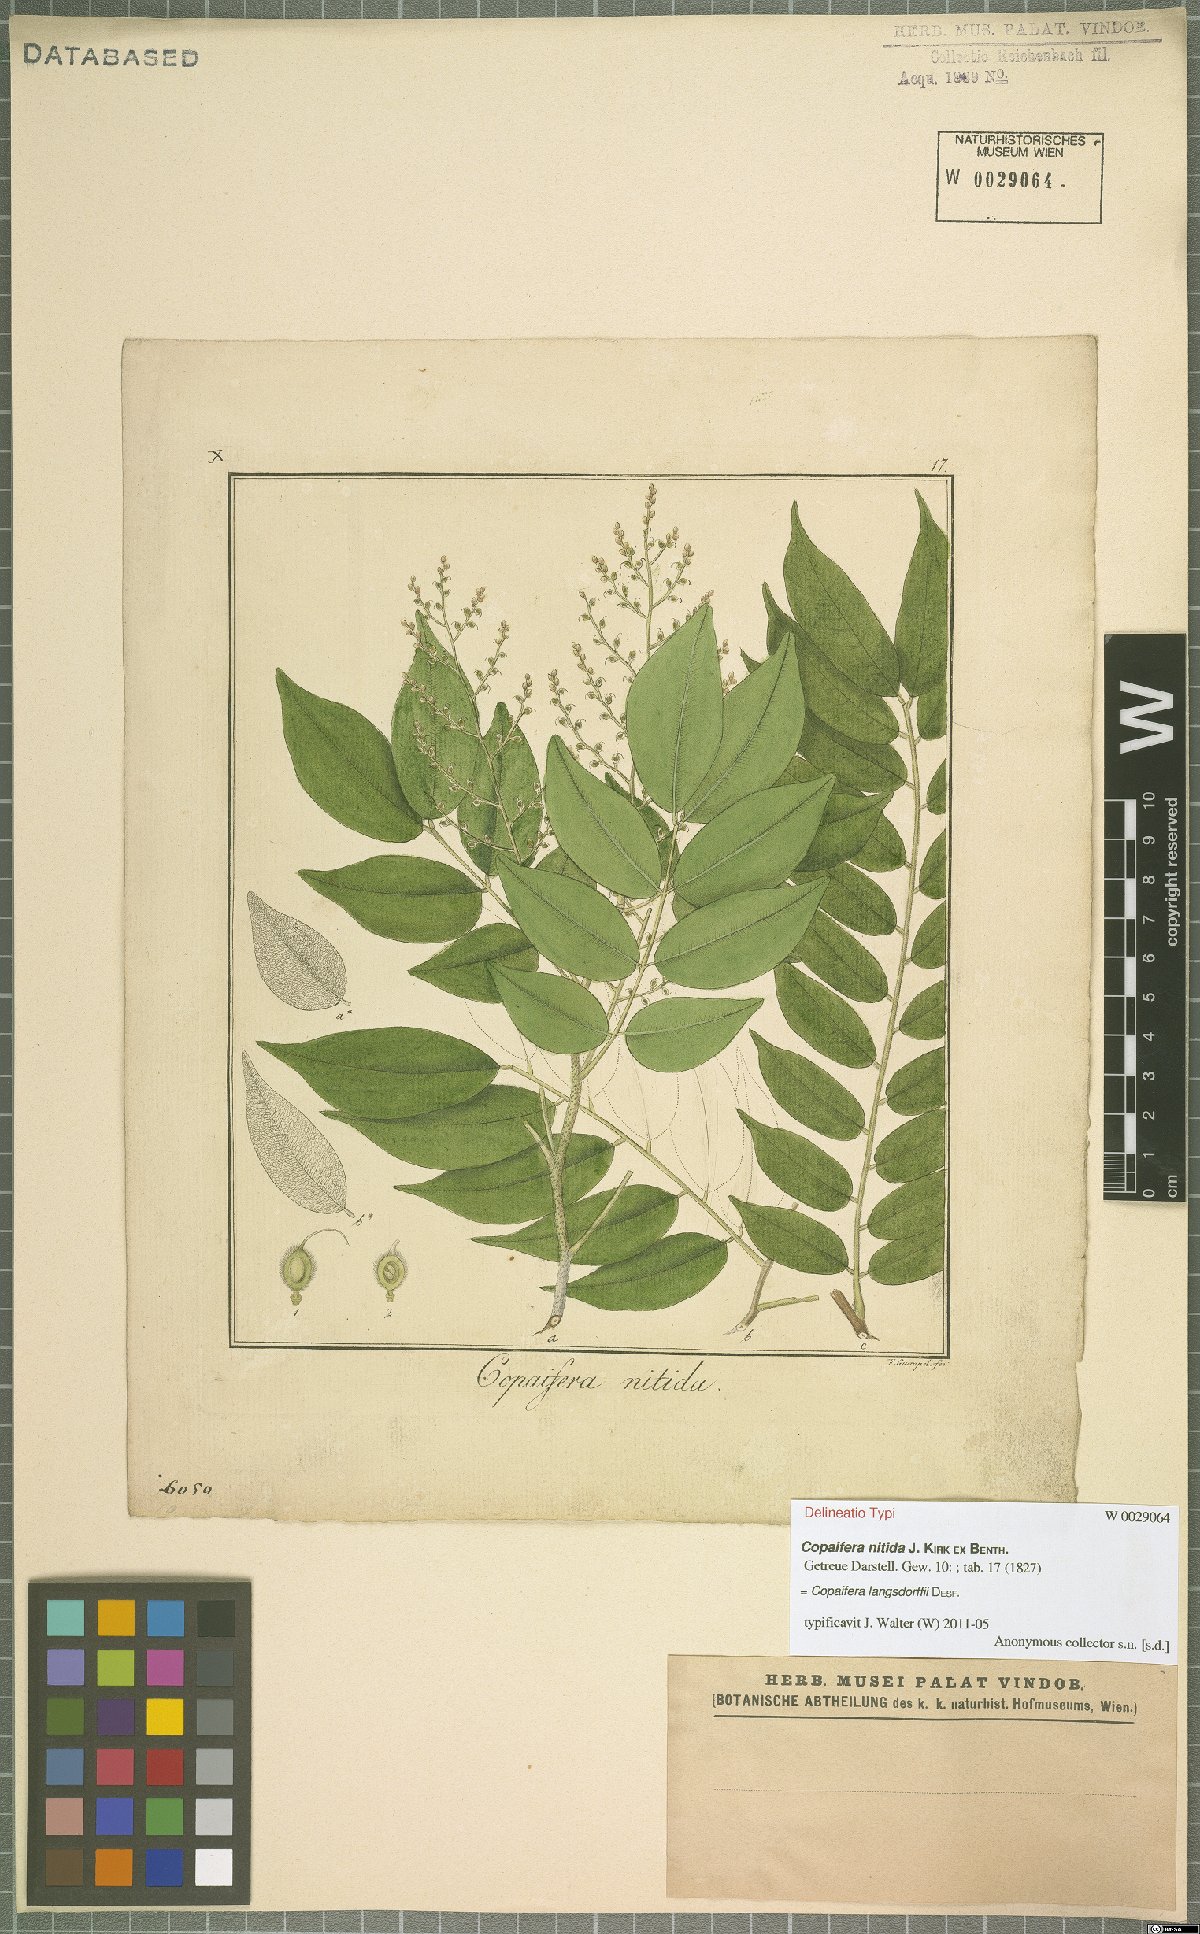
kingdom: Plantae
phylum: Tracheophyta
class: Magnoliopsida
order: Fabales
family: Fabaceae
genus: Copaifera
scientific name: Copaifera langsdorffii
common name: Brazilian diesel tree
